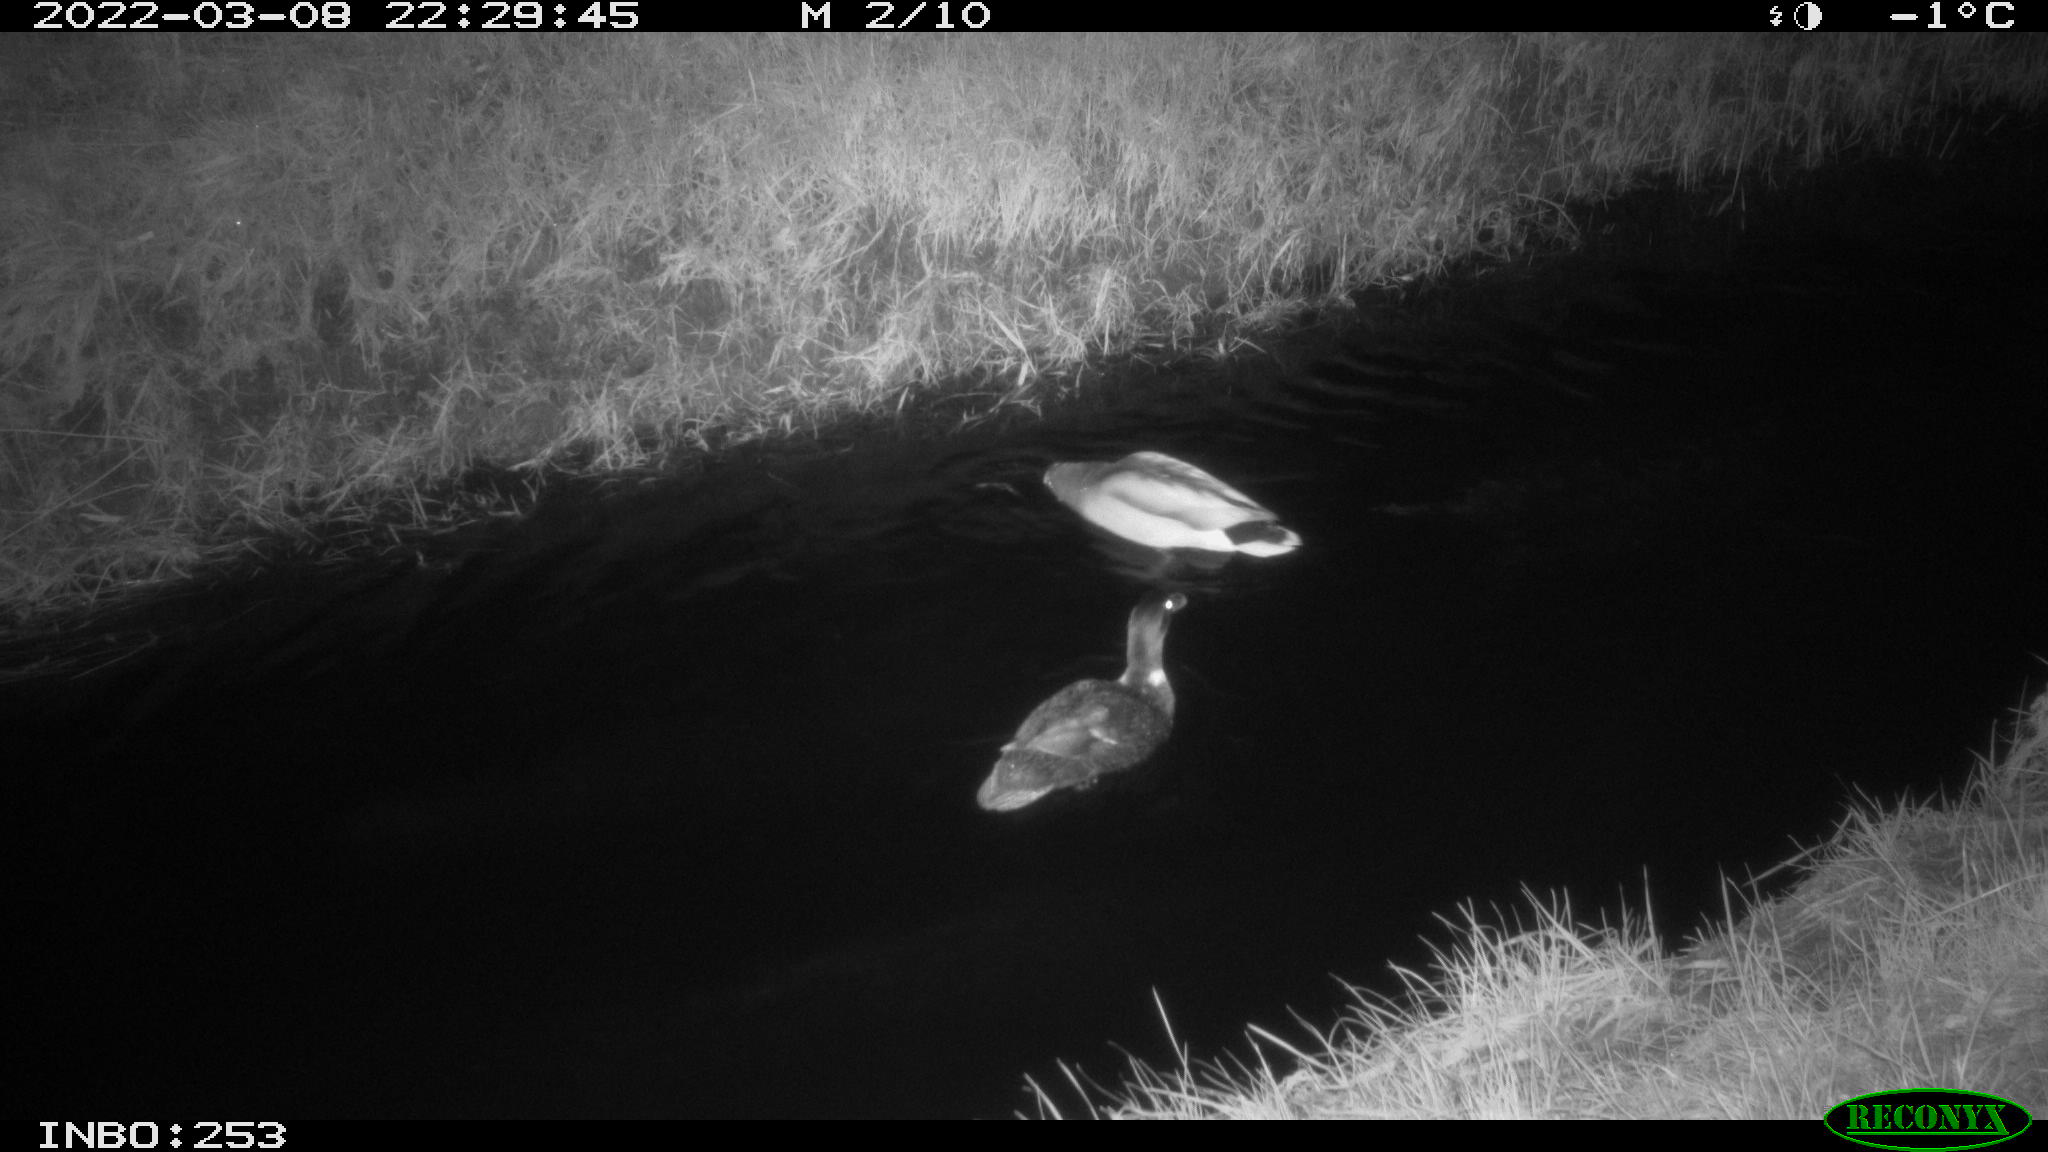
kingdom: Animalia
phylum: Chordata
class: Aves
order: Anseriformes
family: Anatidae
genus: Anas
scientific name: Anas platyrhynchos
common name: Mallard
